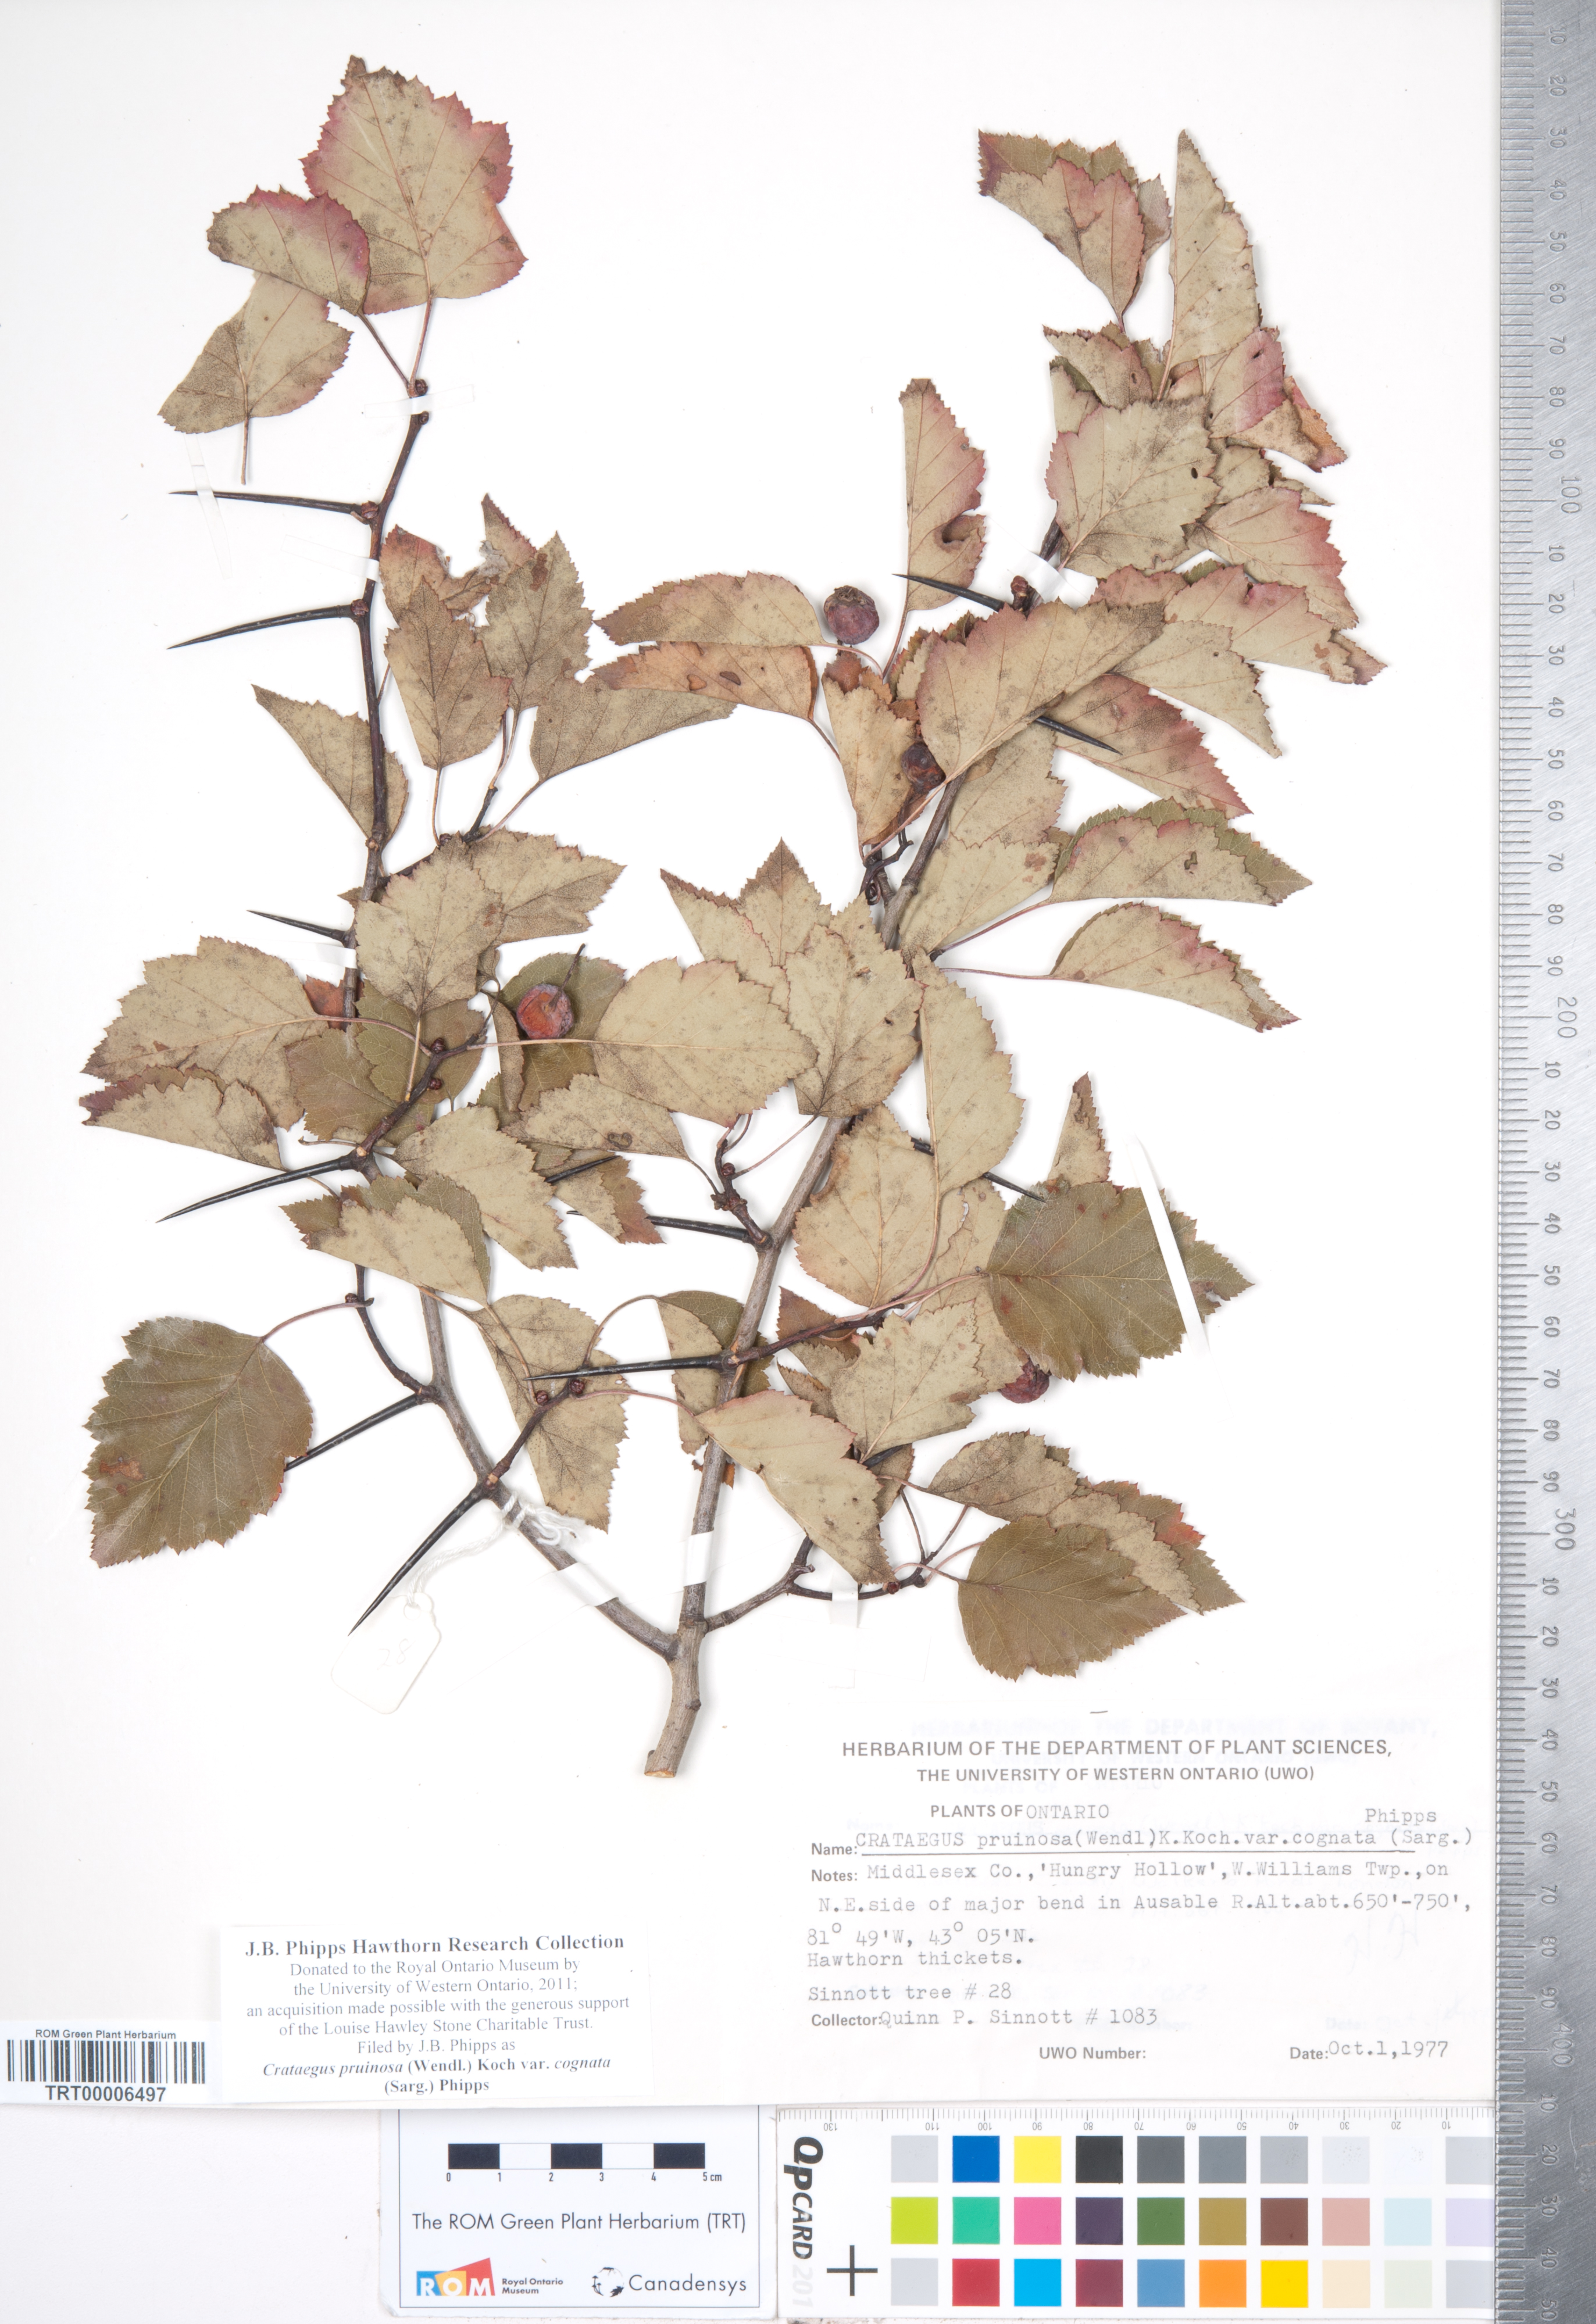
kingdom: Plantae
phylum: Tracheophyta
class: Magnoliopsida
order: Rosales
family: Rosaceae
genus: Crataegus
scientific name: Crataegus
